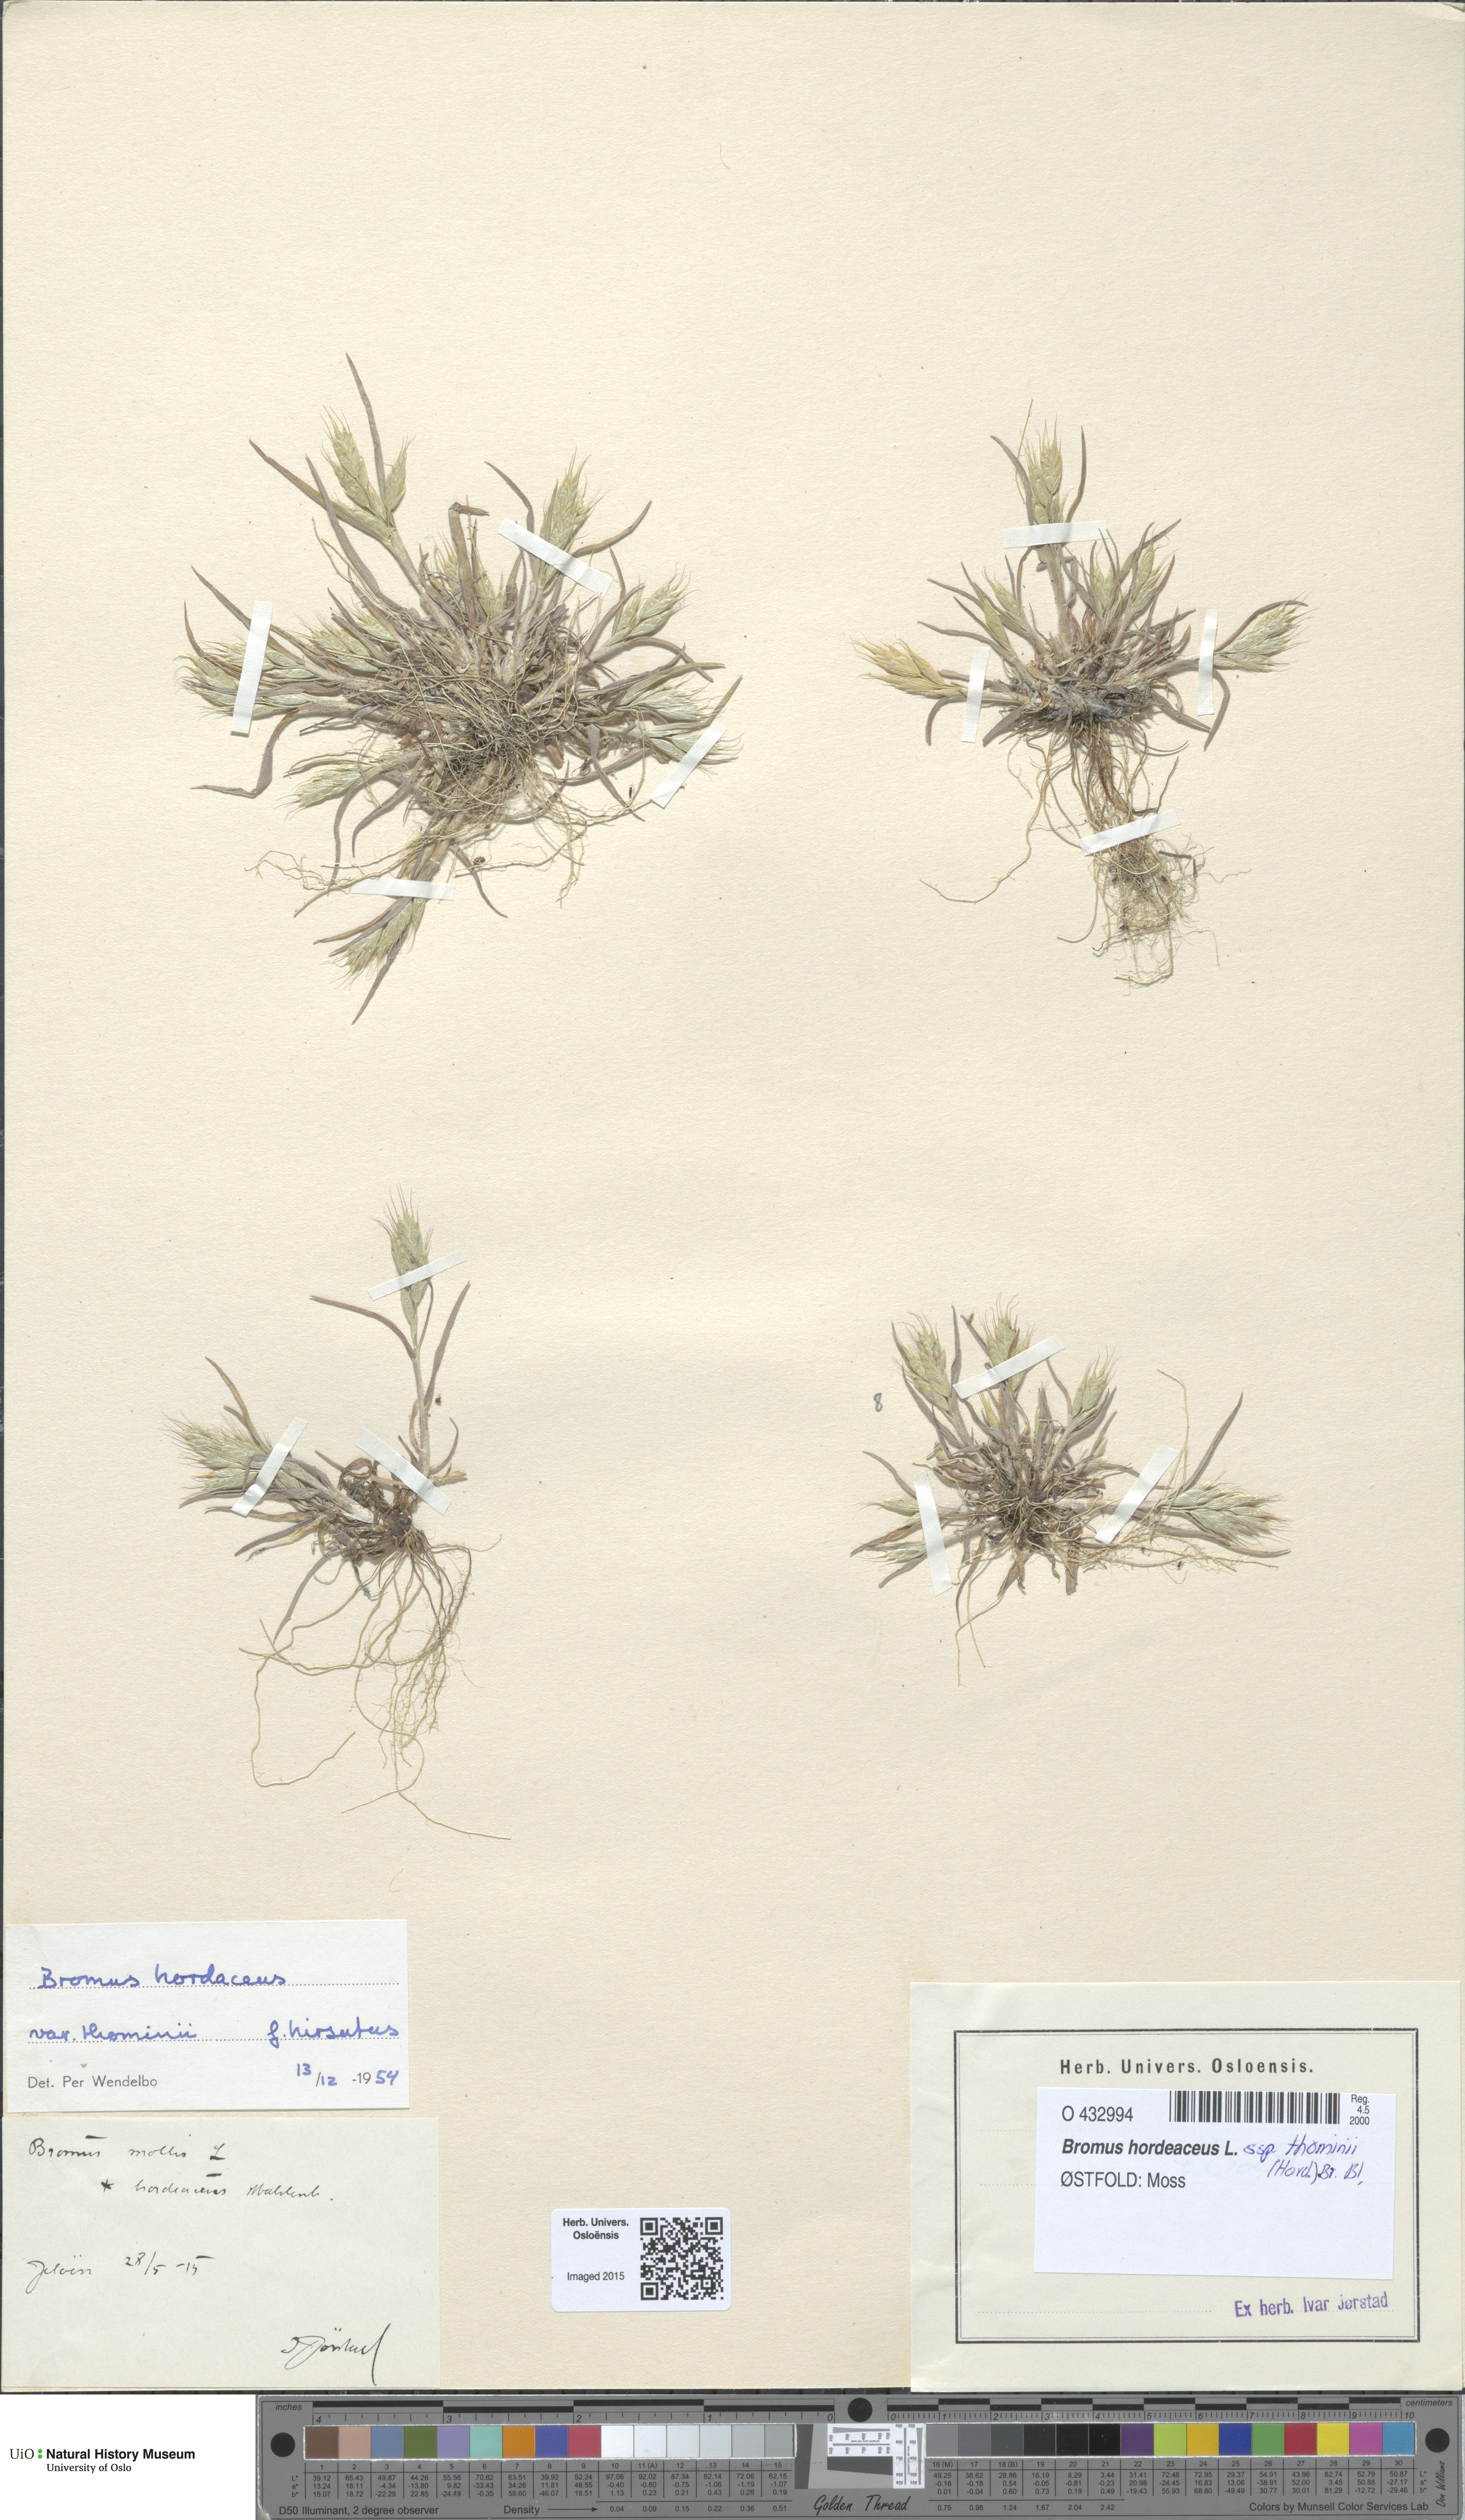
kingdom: Plantae
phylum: Tracheophyta
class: Liliopsida
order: Poales
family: Poaceae
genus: Bromus
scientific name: Bromus hordeaceus
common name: Soft brome
